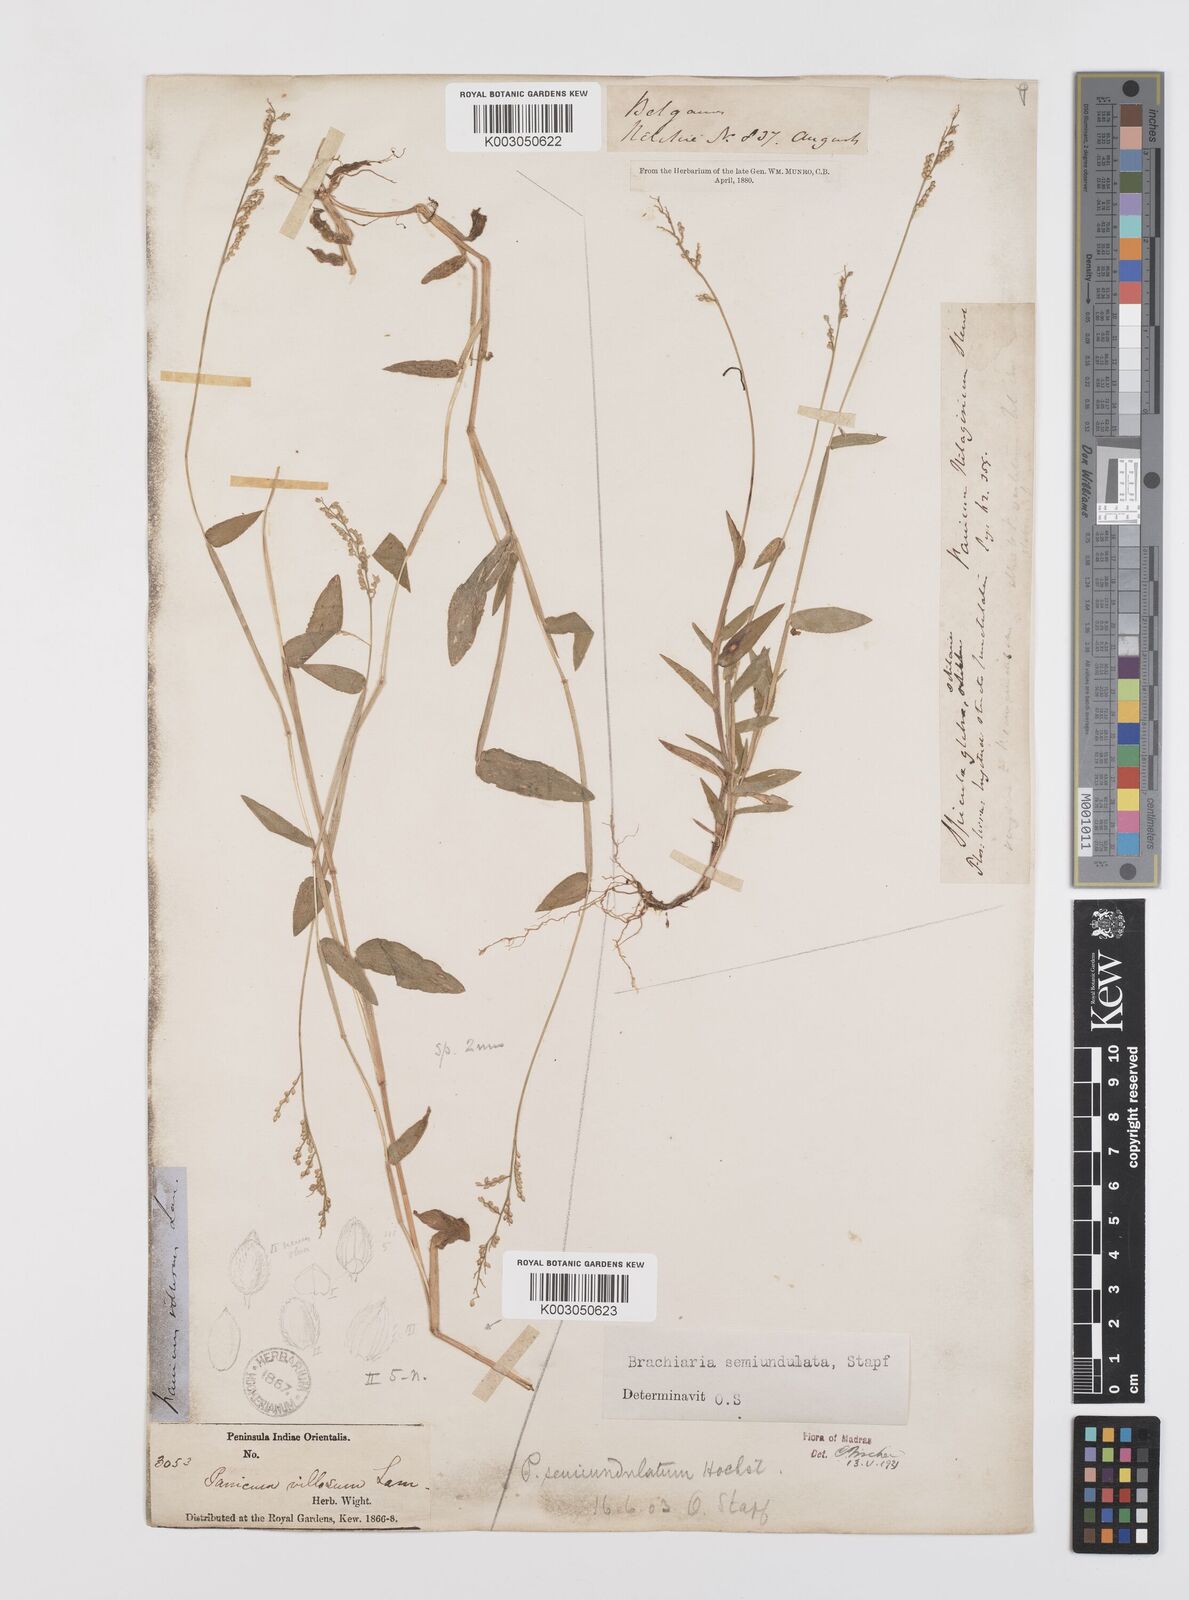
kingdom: Plantae
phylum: Tracheophyta
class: Liliopsida
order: Poales
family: Poaceae
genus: Urochloa
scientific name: Urochloa semiundulata
